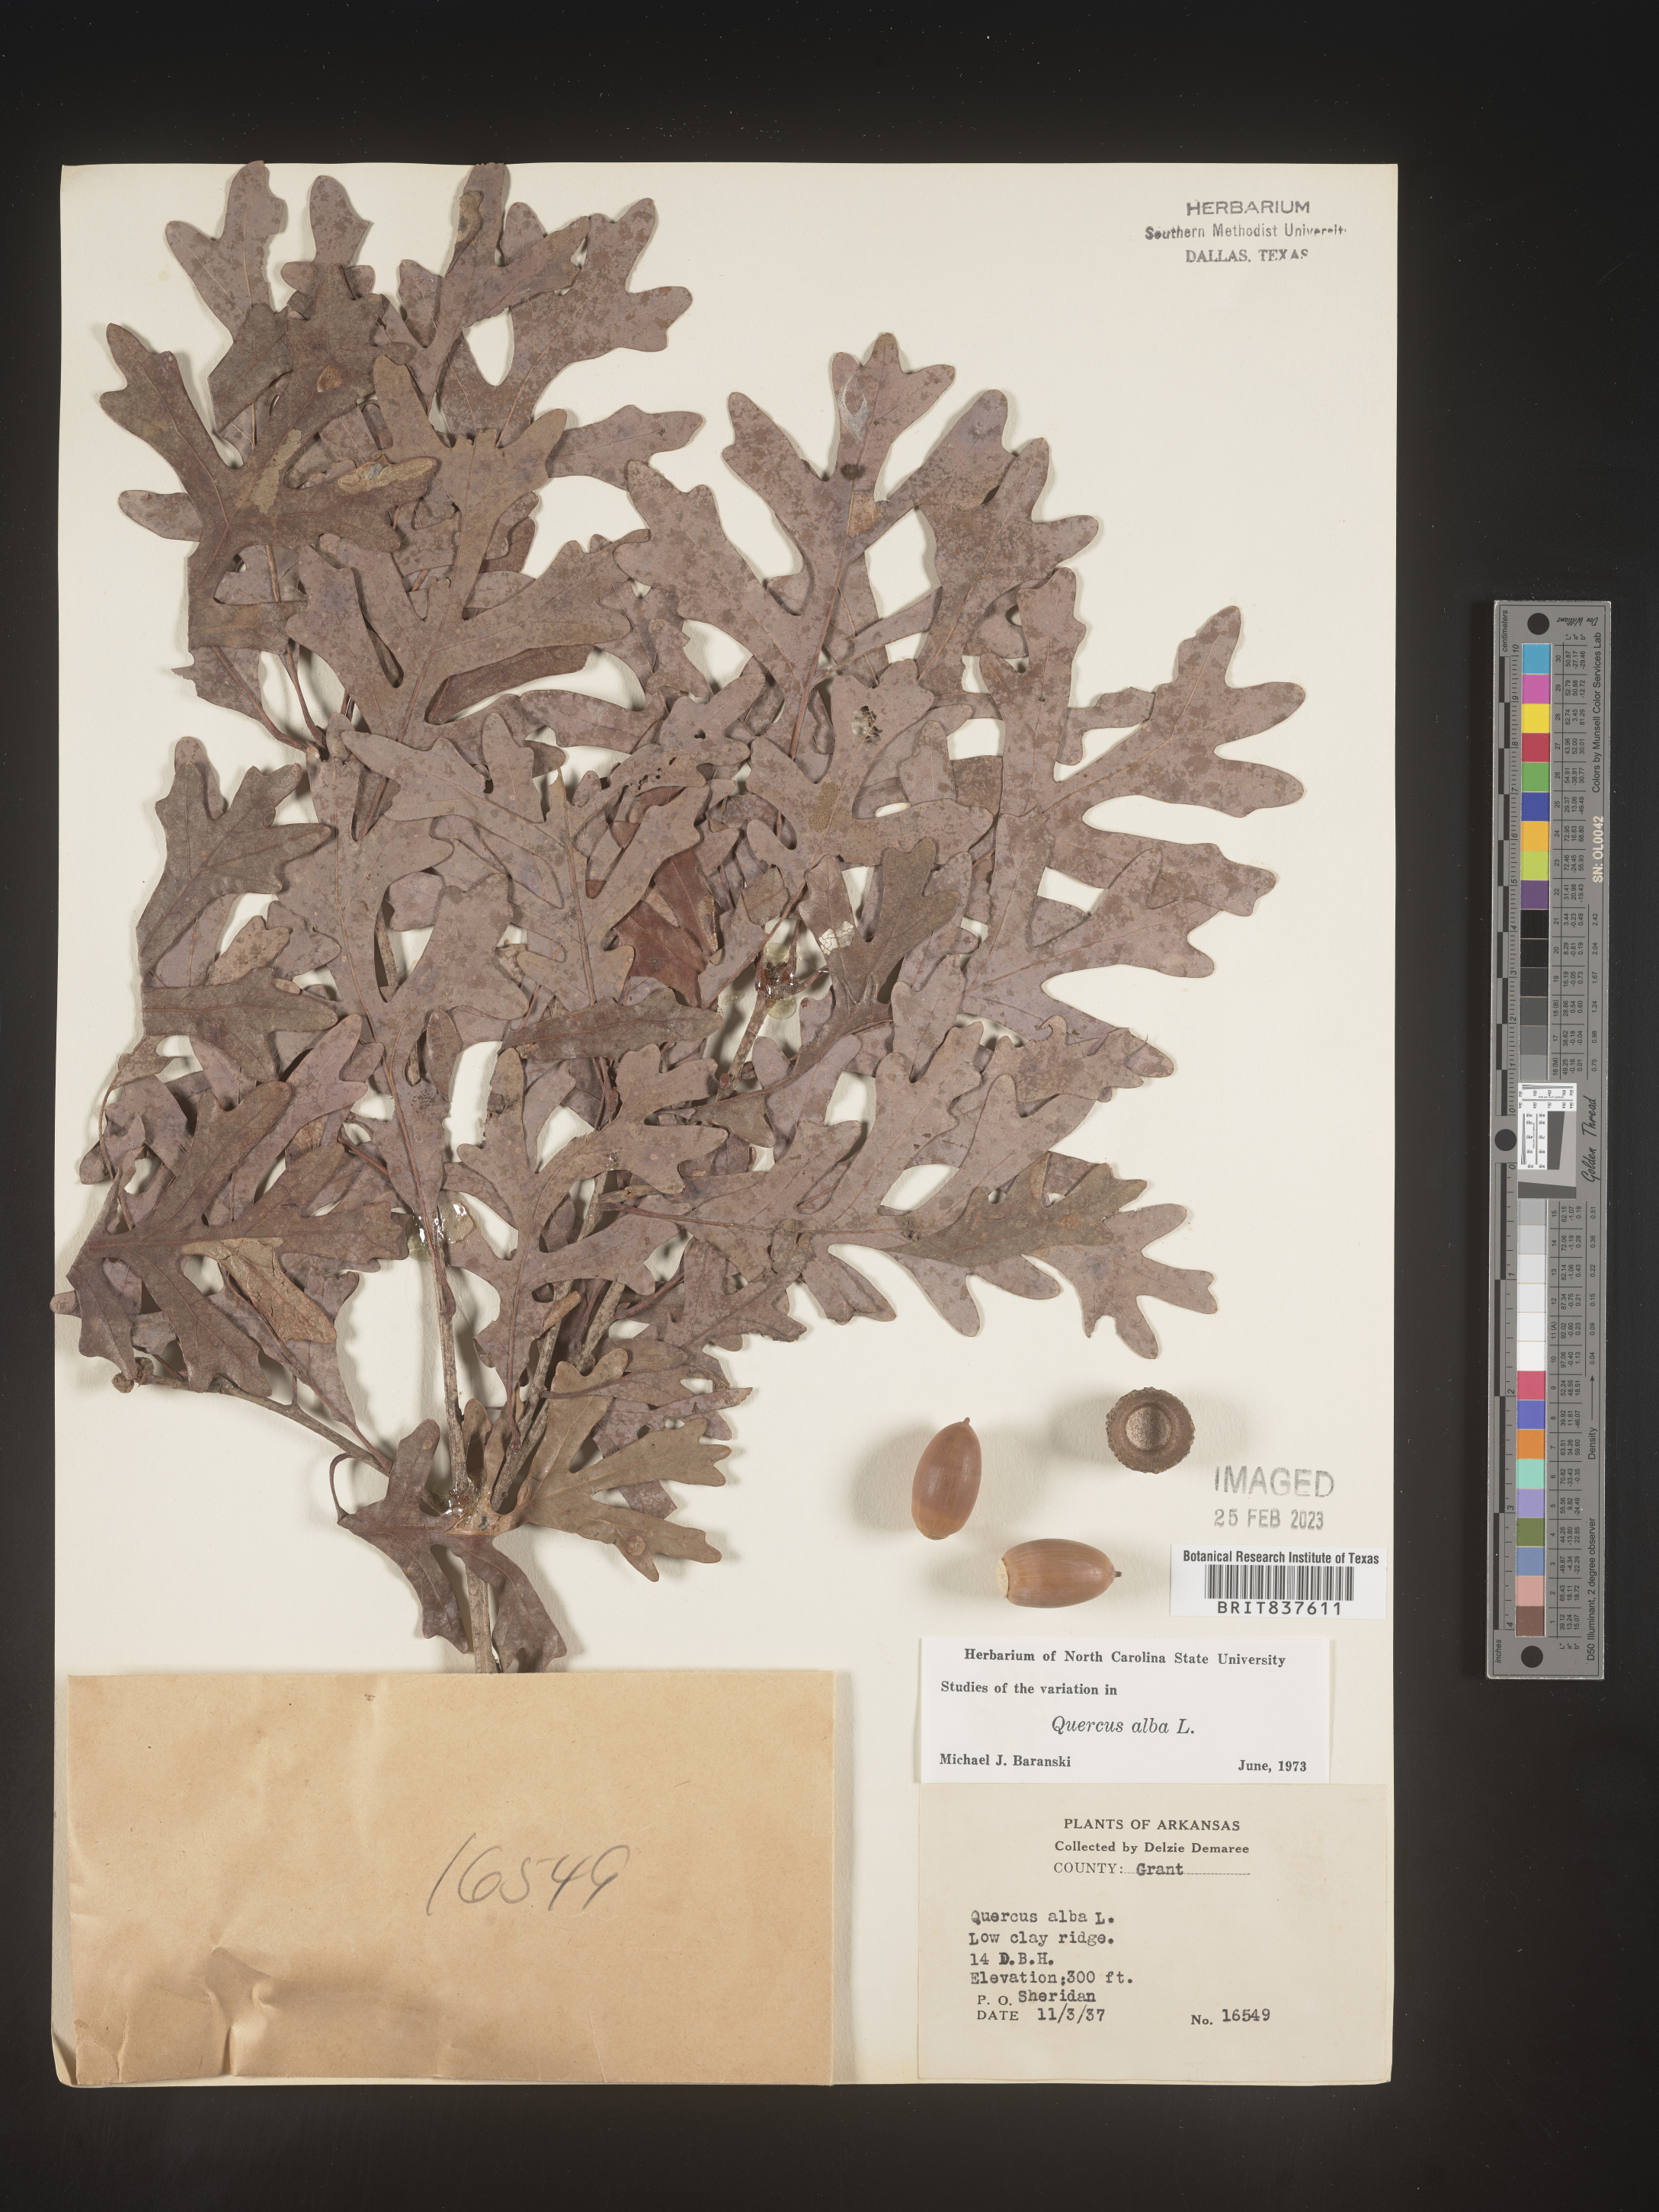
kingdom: Plantae
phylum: Tracheophyta
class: Magnoliopsida
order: Fagales
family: Fagaceae
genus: Quercus
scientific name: Quercus alba
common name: White oak
